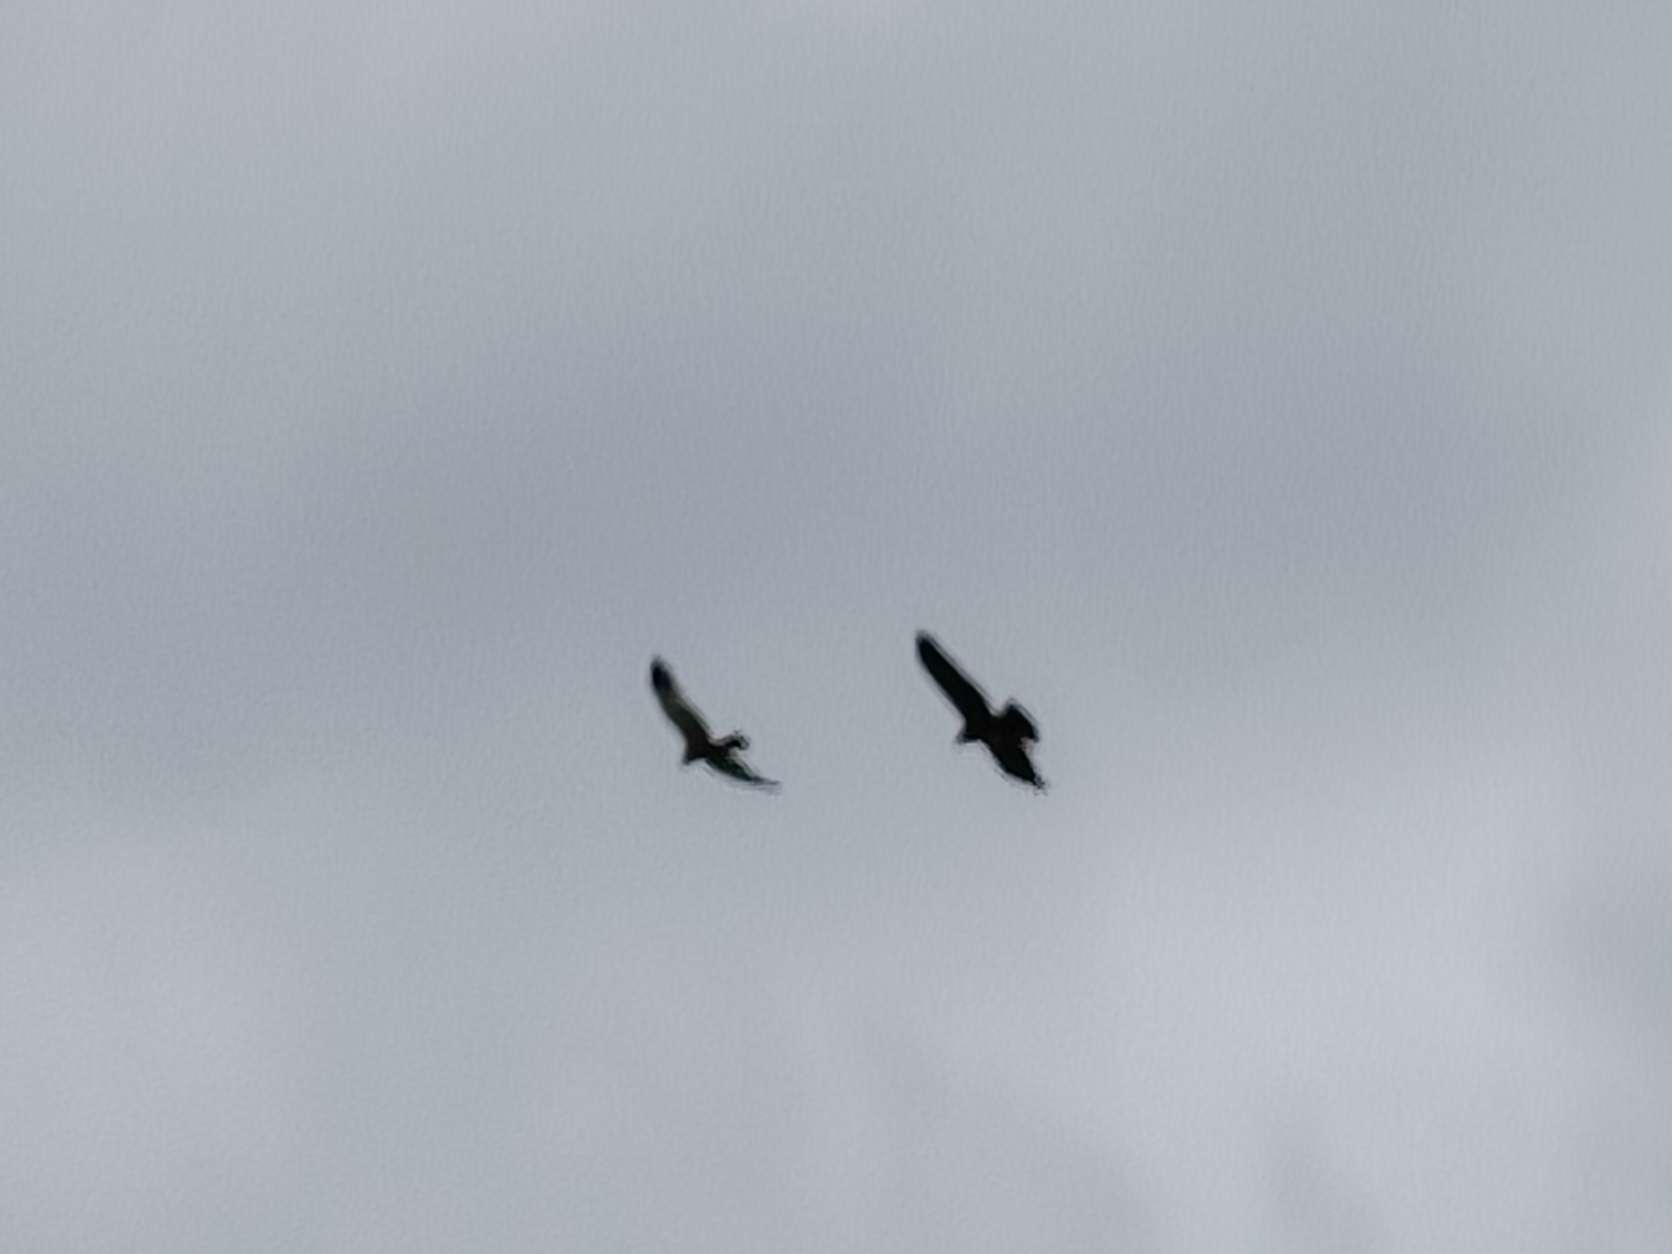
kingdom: Animalia
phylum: Chordata
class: Aves
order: Accipitriformes
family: Accipitridae
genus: Circus
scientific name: Circus aeruginosus
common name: Rørhøg
